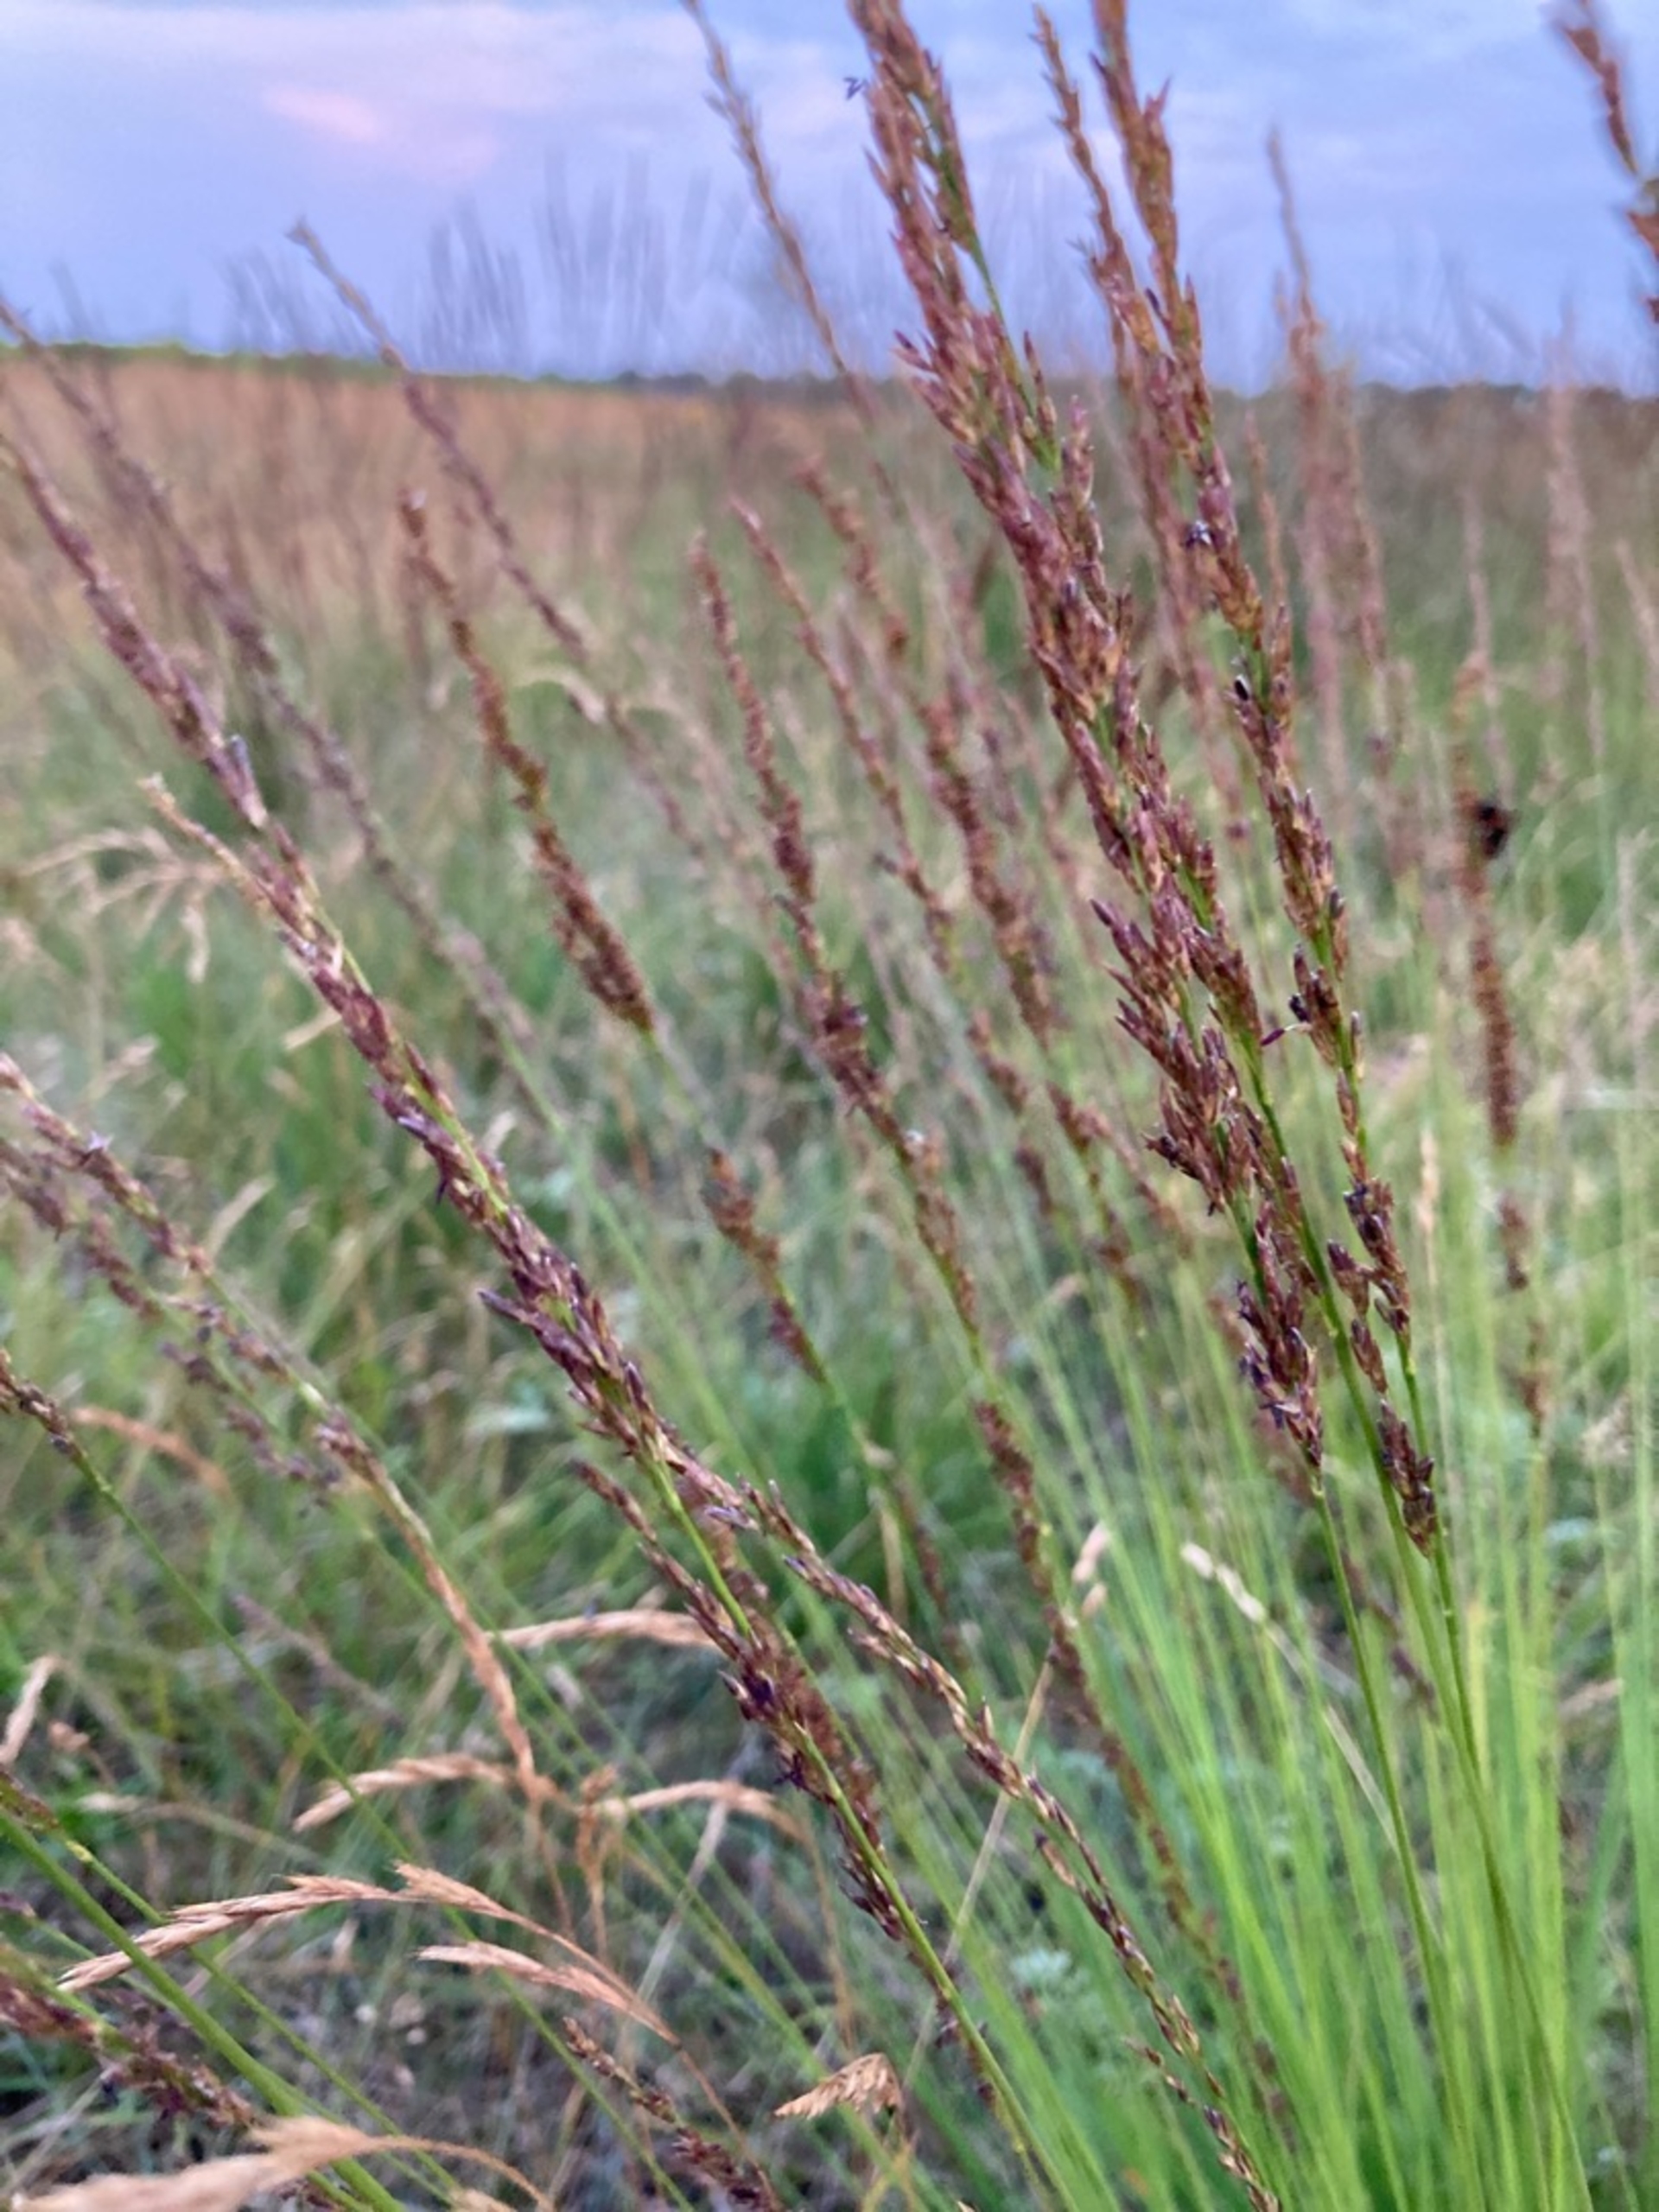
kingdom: Plantae
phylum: Tracheophyta
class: Liliopsida
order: Poales
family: Poaceae
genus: Molinia
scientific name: Molinia caerulea
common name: Blåtop
